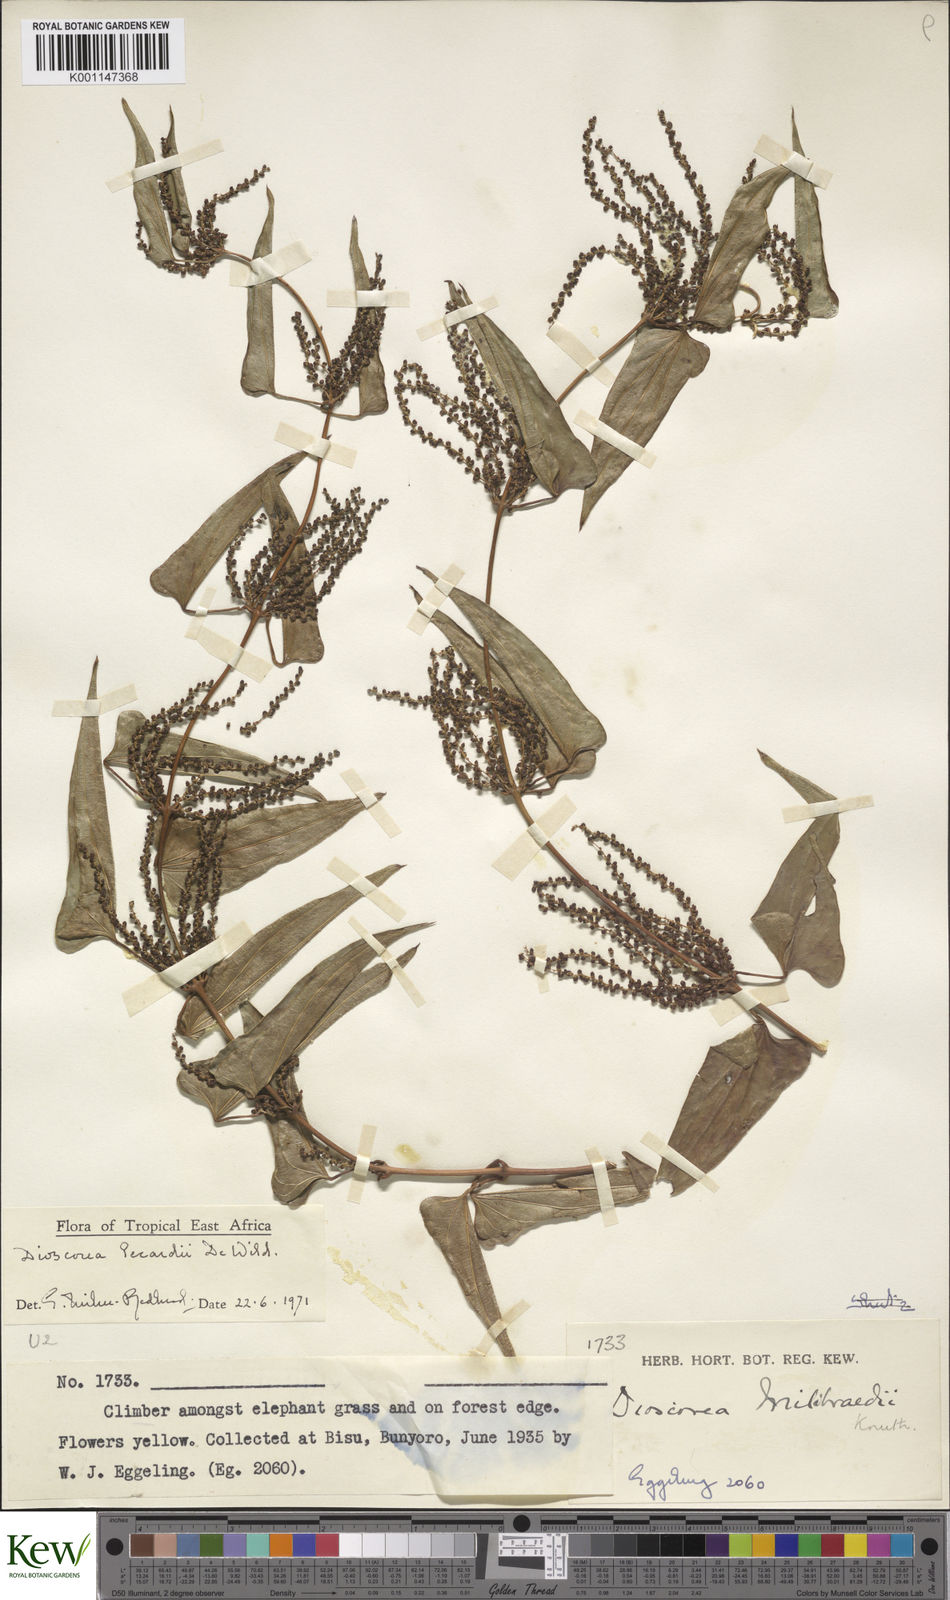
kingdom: Plantae
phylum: Tracheophyta
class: Liliopsida
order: Dioscoreales
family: Dioscoreaceae
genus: Dioscorea
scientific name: Dioscorea sagittifolia
